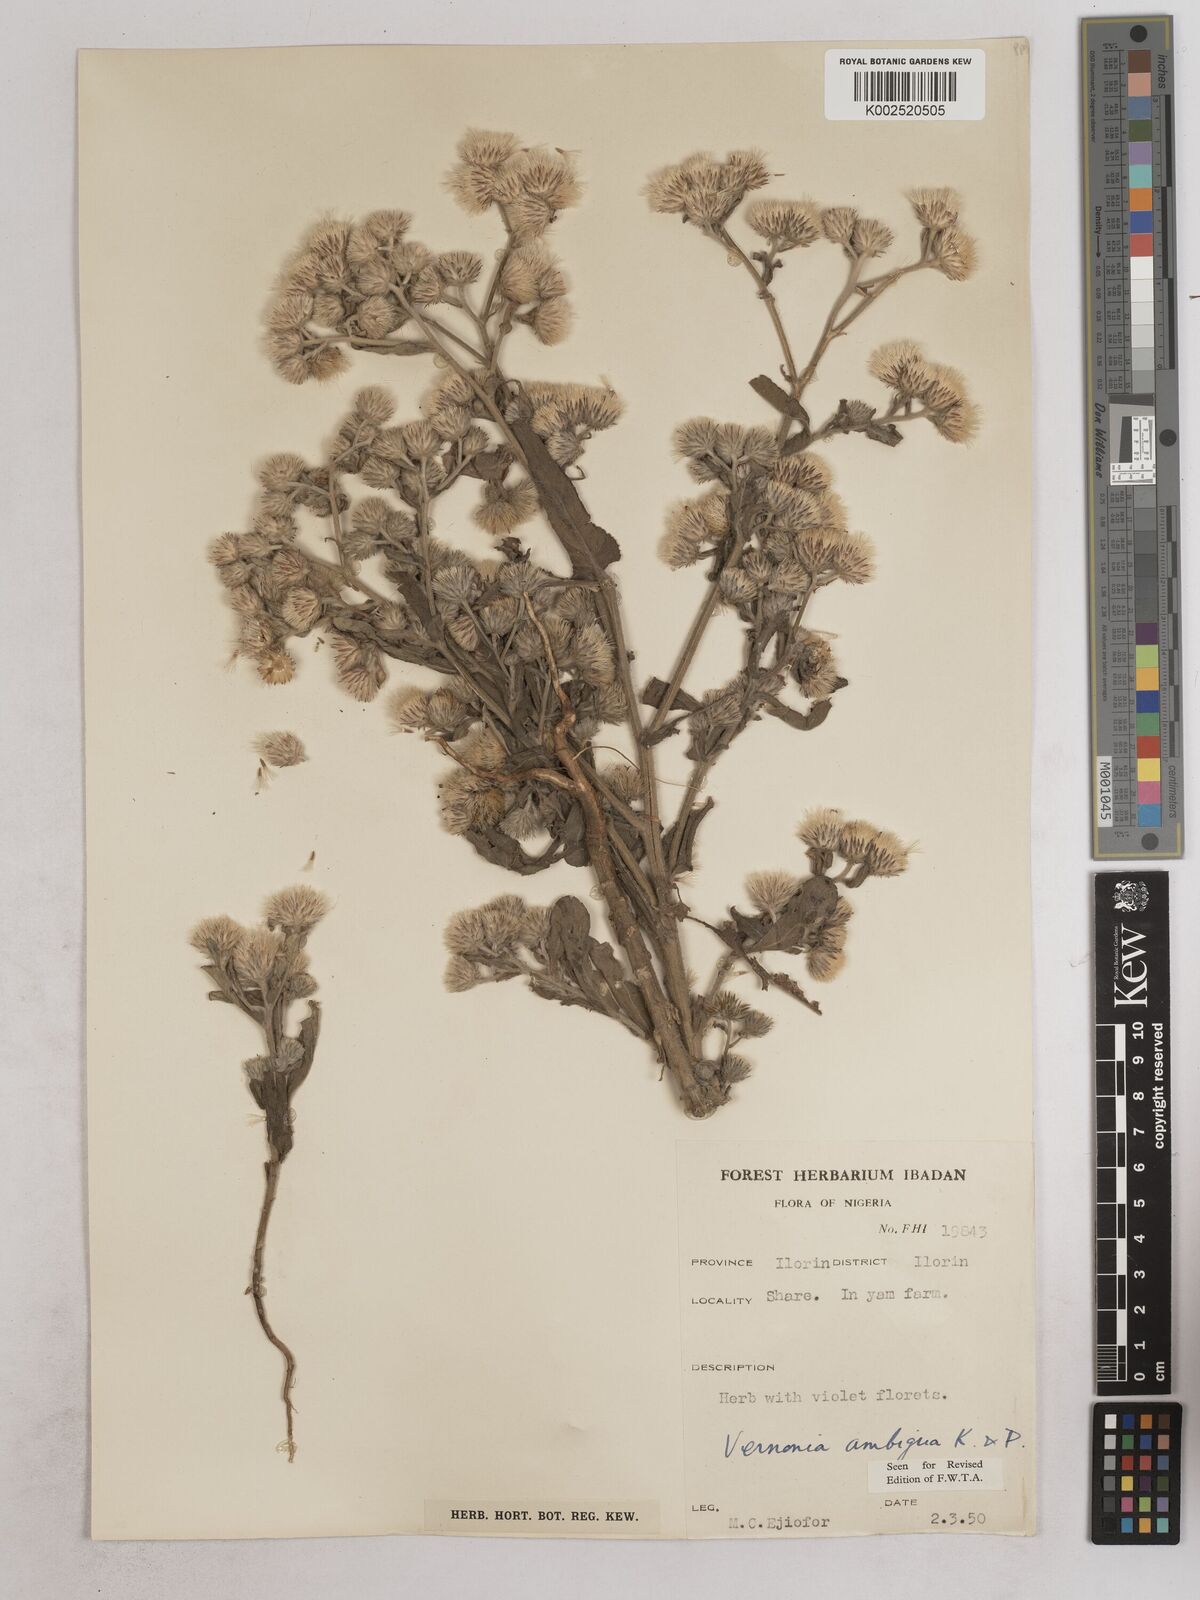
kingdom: Plantae
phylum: Tracheophyta
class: Magnoliopsida
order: Asterales
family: Asteraceae
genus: Vernoniastrum
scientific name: Vernoniastrum ambiguum
